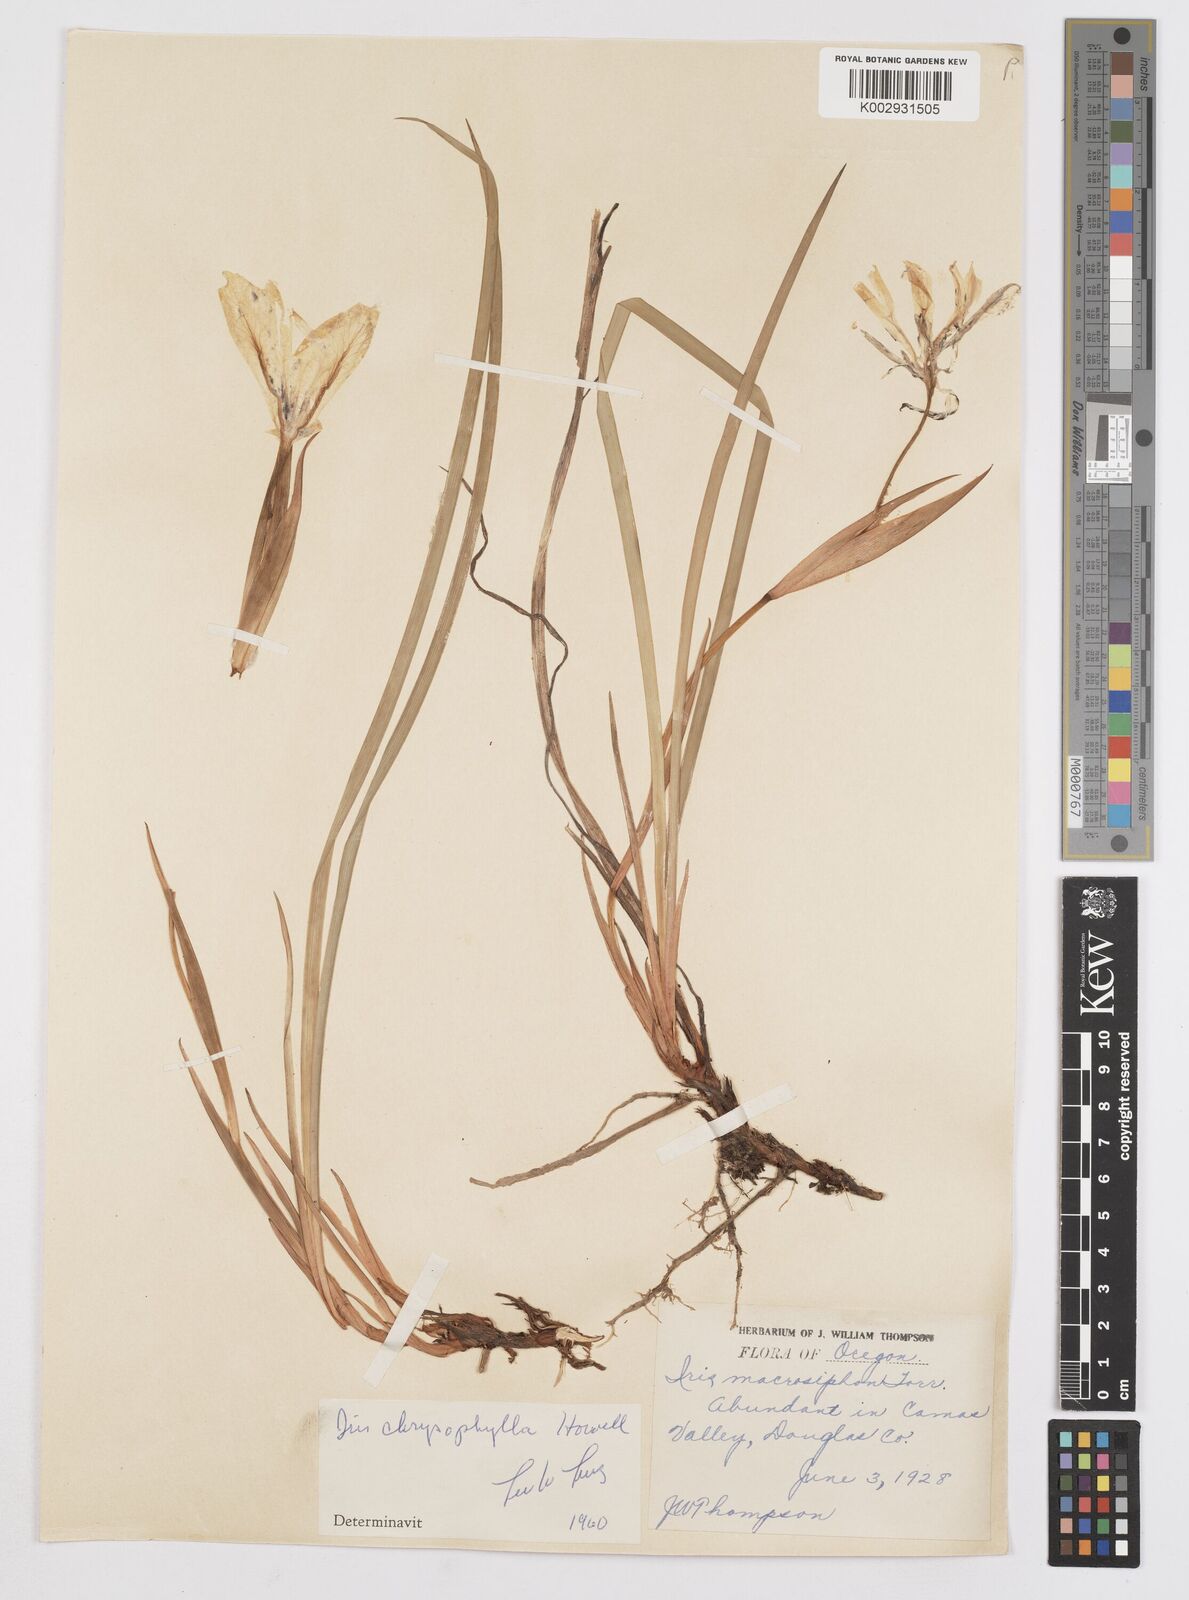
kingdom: Plantae
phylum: Tracheophyta
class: Liliopsida
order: Asparagales
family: Iridaceae
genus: Iris
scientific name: Iris chrysophylla
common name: Yellow-leaf iris
